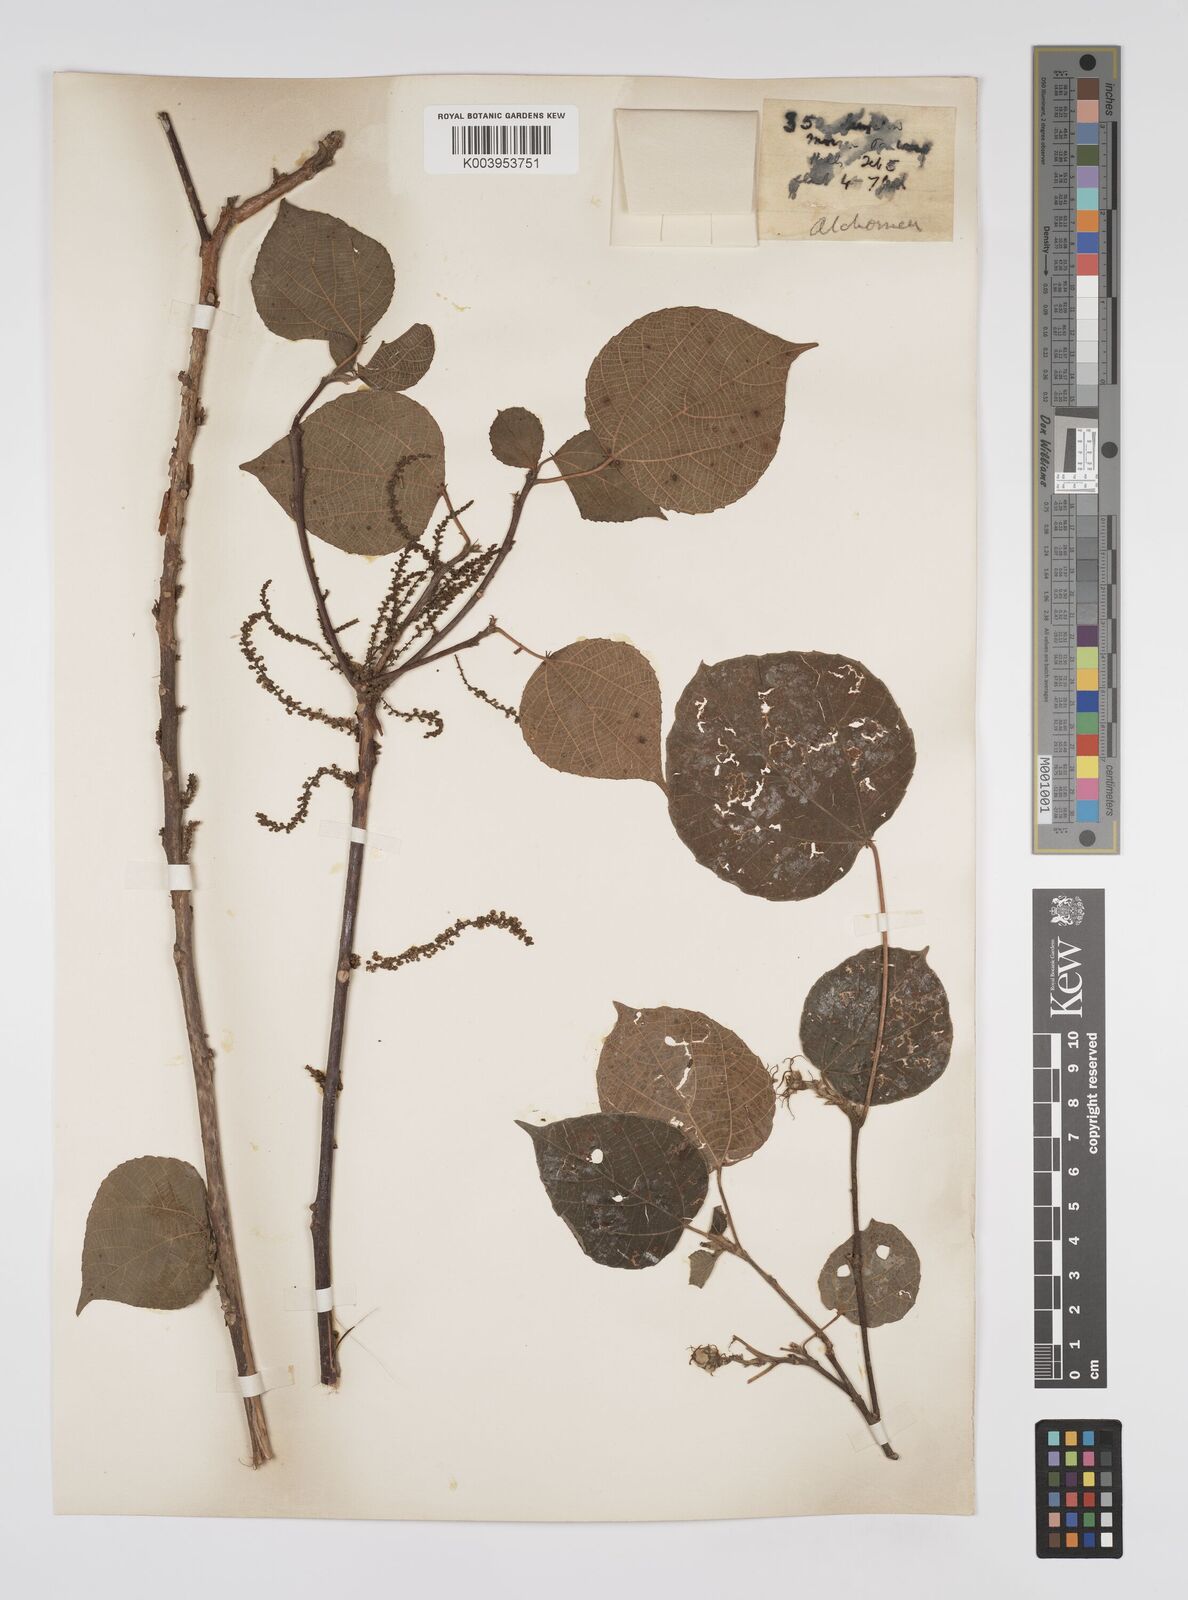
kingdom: Plantae
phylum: Tracheophyta
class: Magnoliopsida
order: Malpighiales
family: Euphorbiaceae
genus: Alchornea
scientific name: Alchornea mollis
